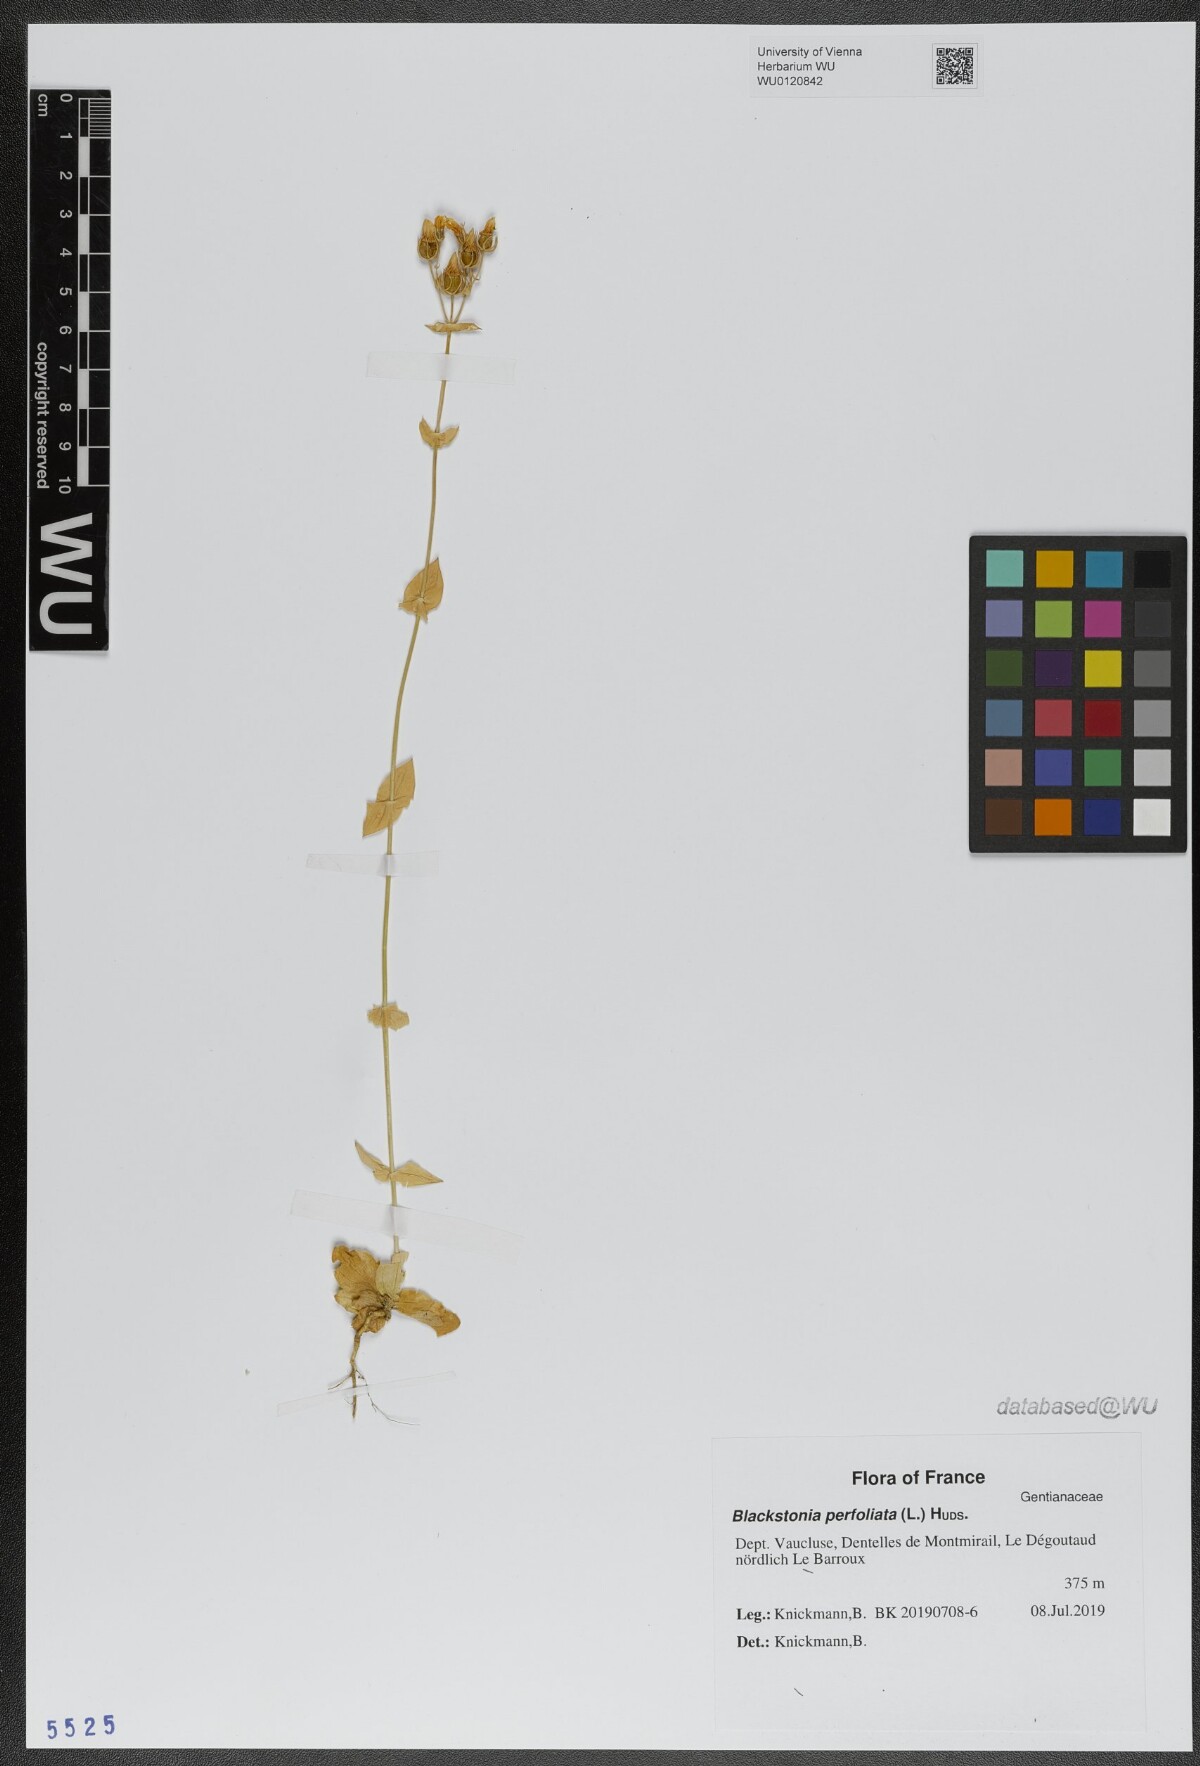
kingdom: Plantae
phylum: Tracheophyta
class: Magnoliopsida
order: Gentianales
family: Gentianaceae
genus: Blackstonia
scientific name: Blackstonia perfoliata
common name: Yellow-wort
